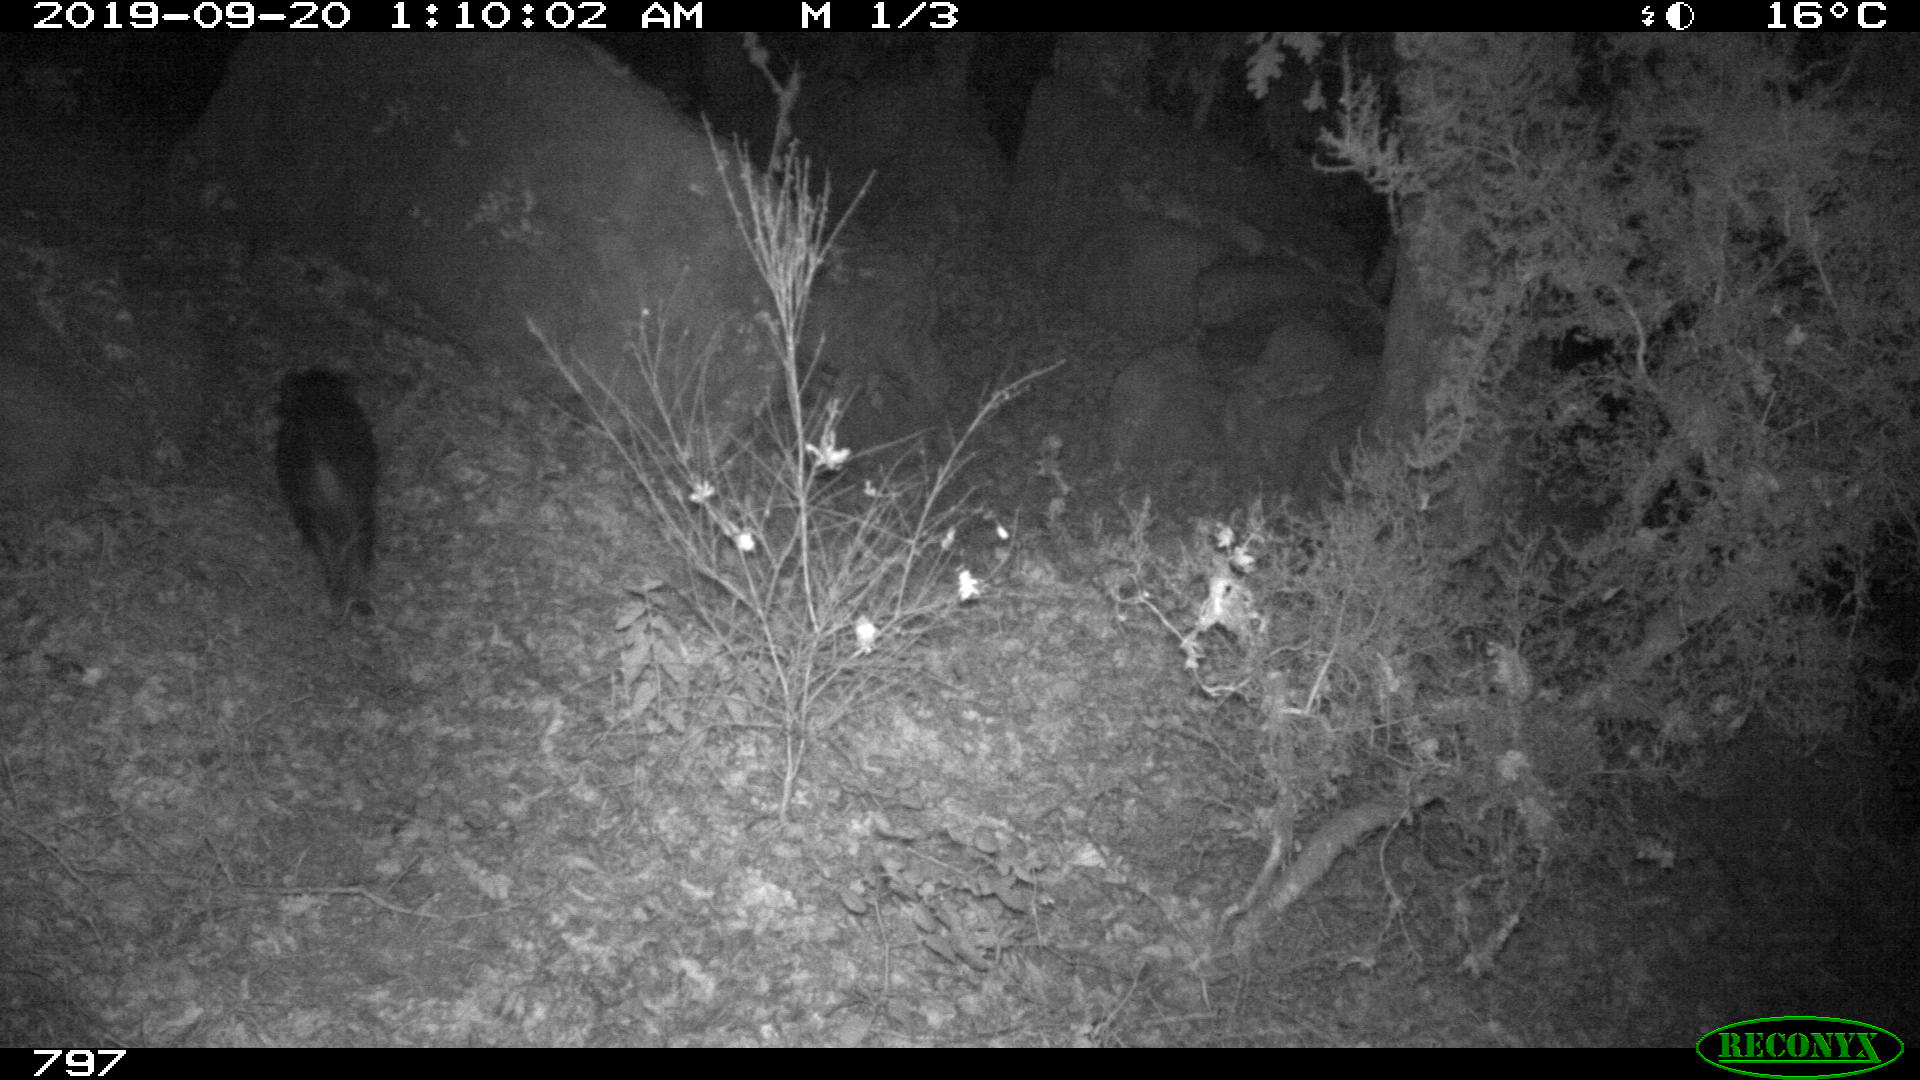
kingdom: Animalia
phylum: Chordata
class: Mammalia
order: Artiodactyla
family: Suidae
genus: Sus
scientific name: Sus scrofa
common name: Wild boar
